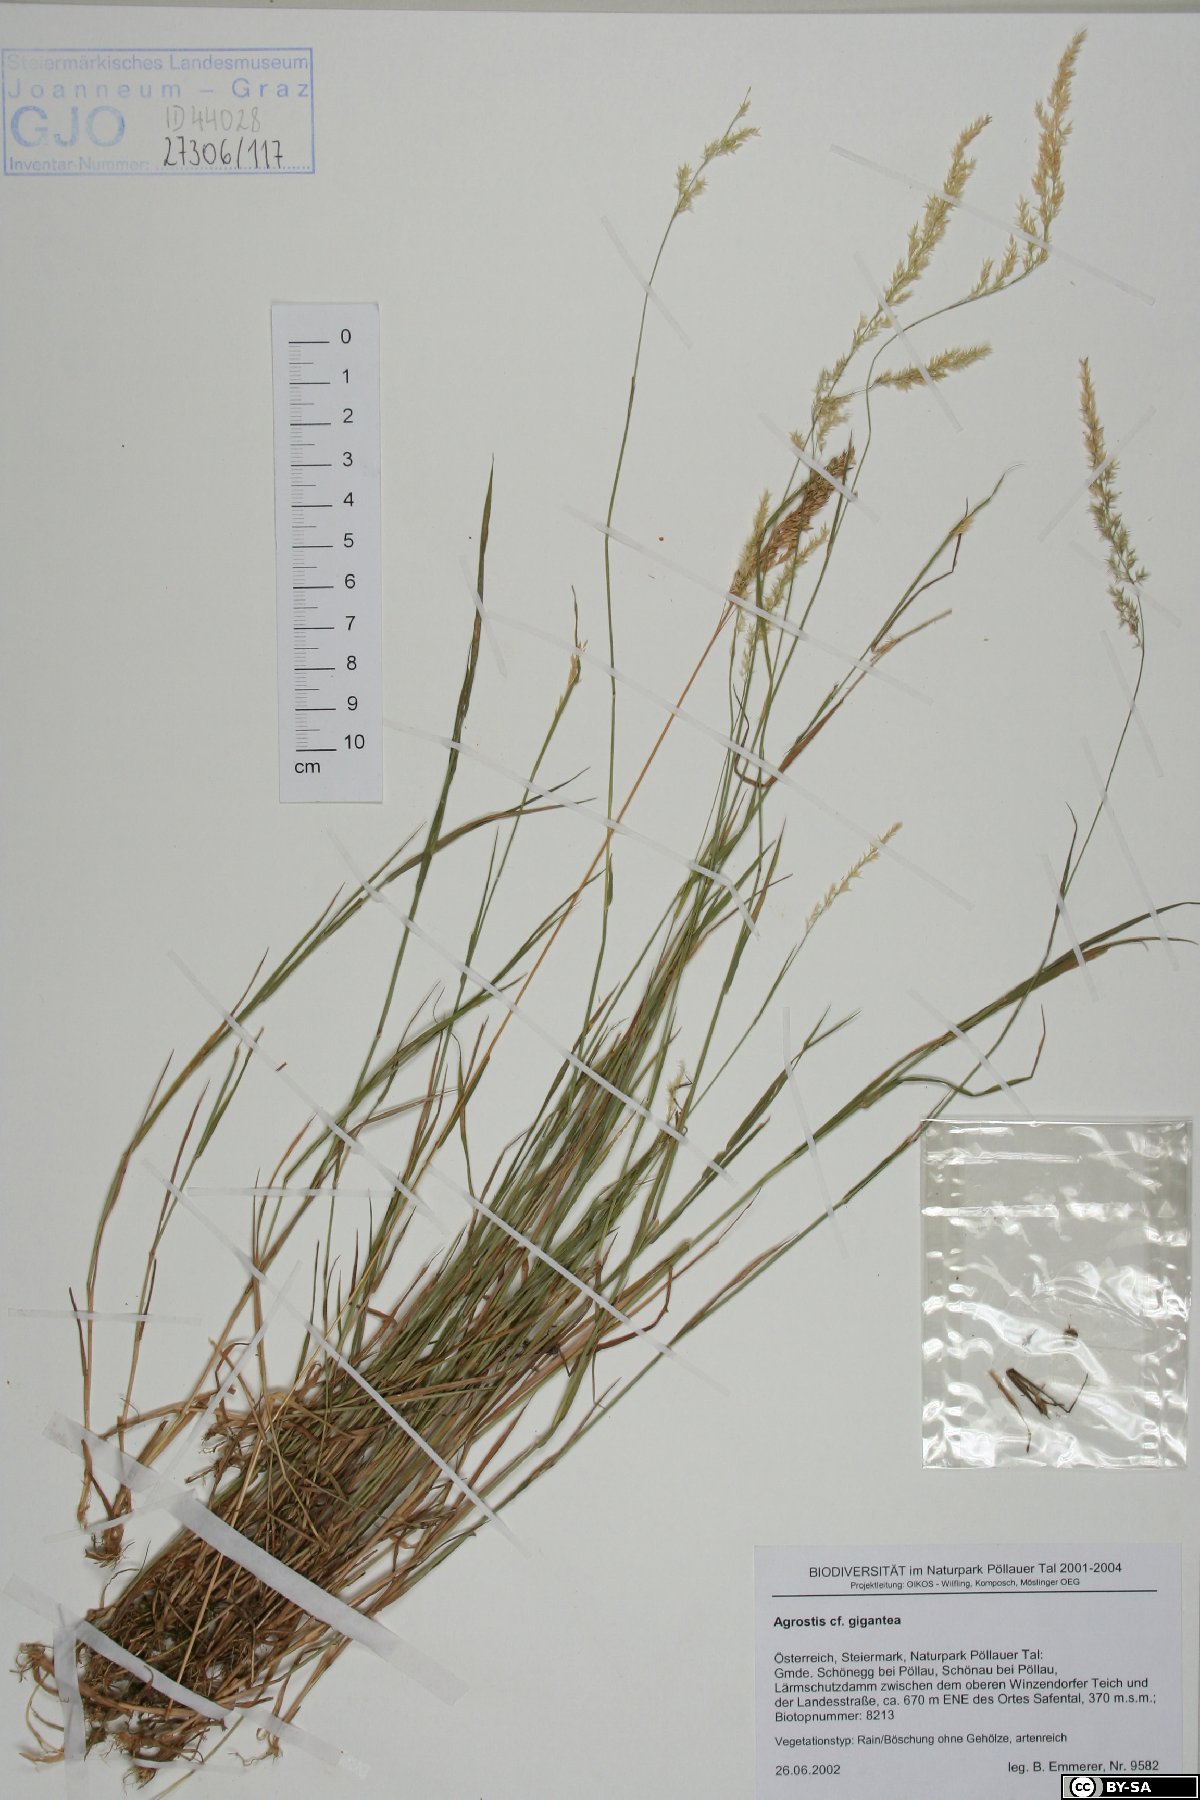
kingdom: Plantae
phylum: Tracheophyta
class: Liliopsida
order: Poales
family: Poaceae
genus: Agrostis
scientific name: Agrostis gigantea
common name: Black bent
